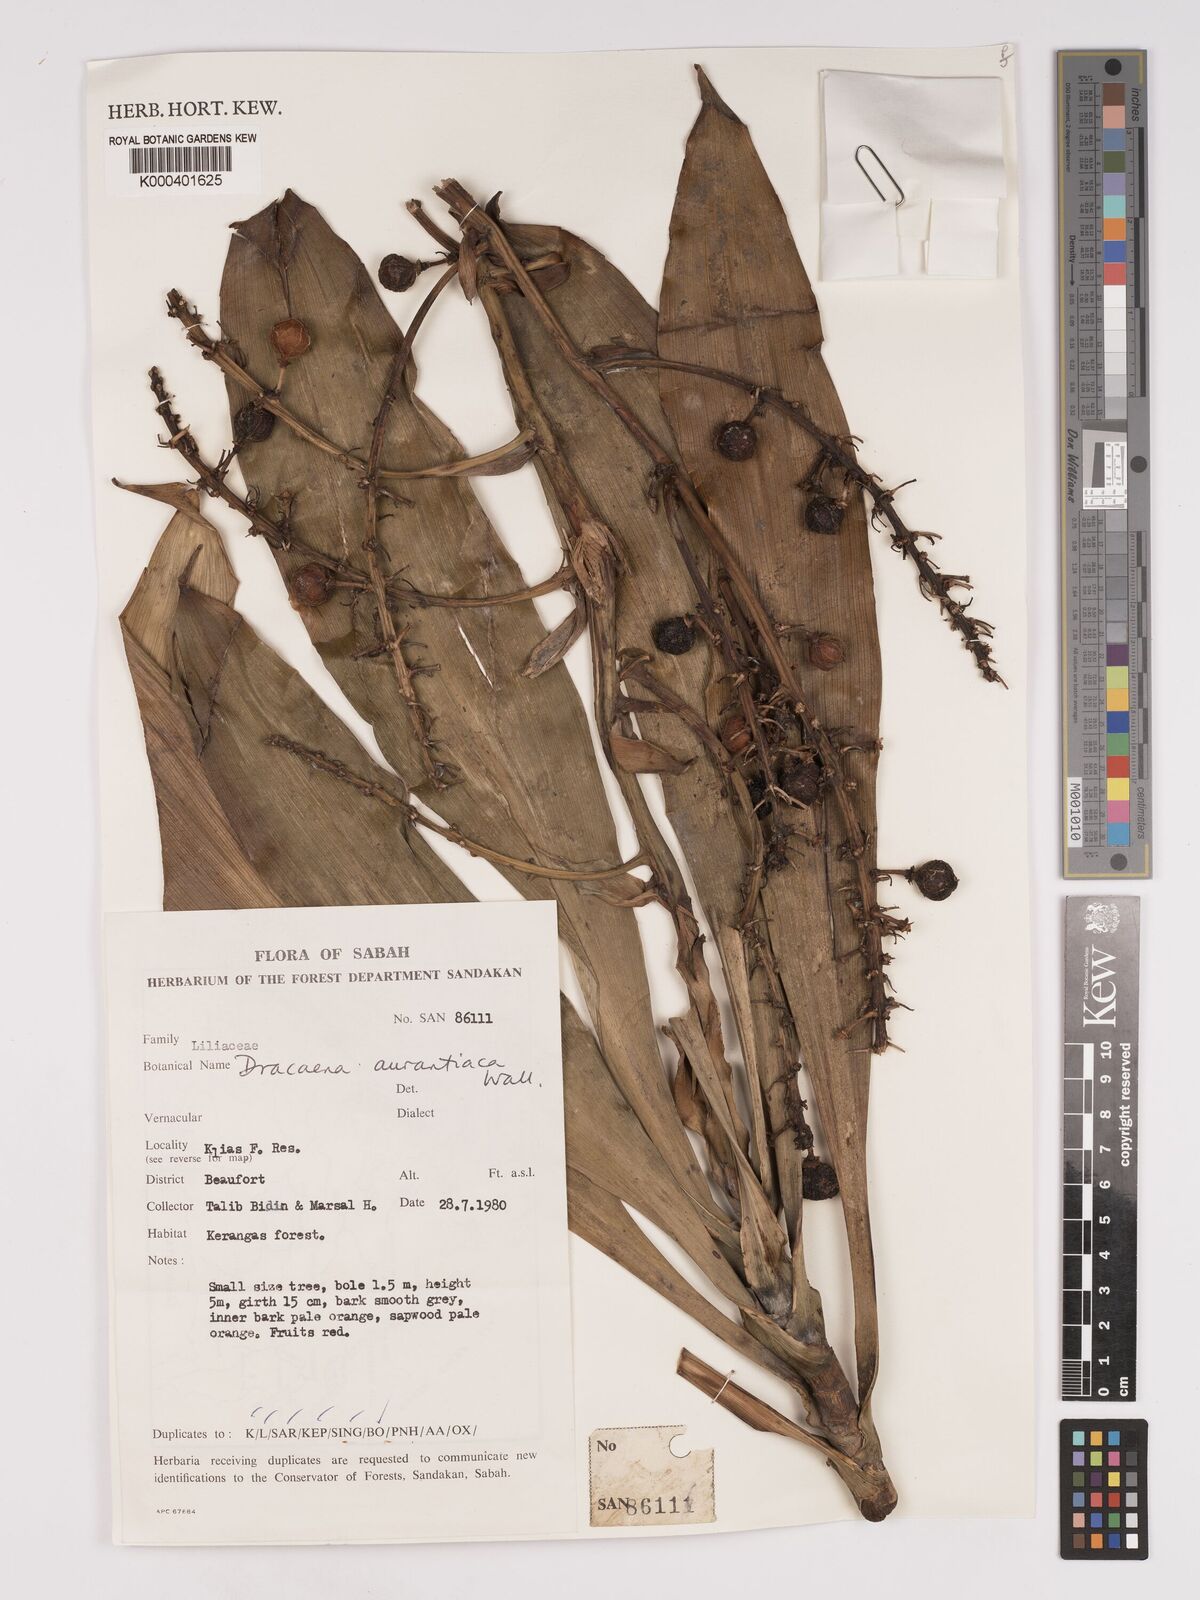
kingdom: Plantae
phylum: Tracheophyta
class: Liliopsida
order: Asparagales
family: Asparagaceae
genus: Dracaena
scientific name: Dracaena
